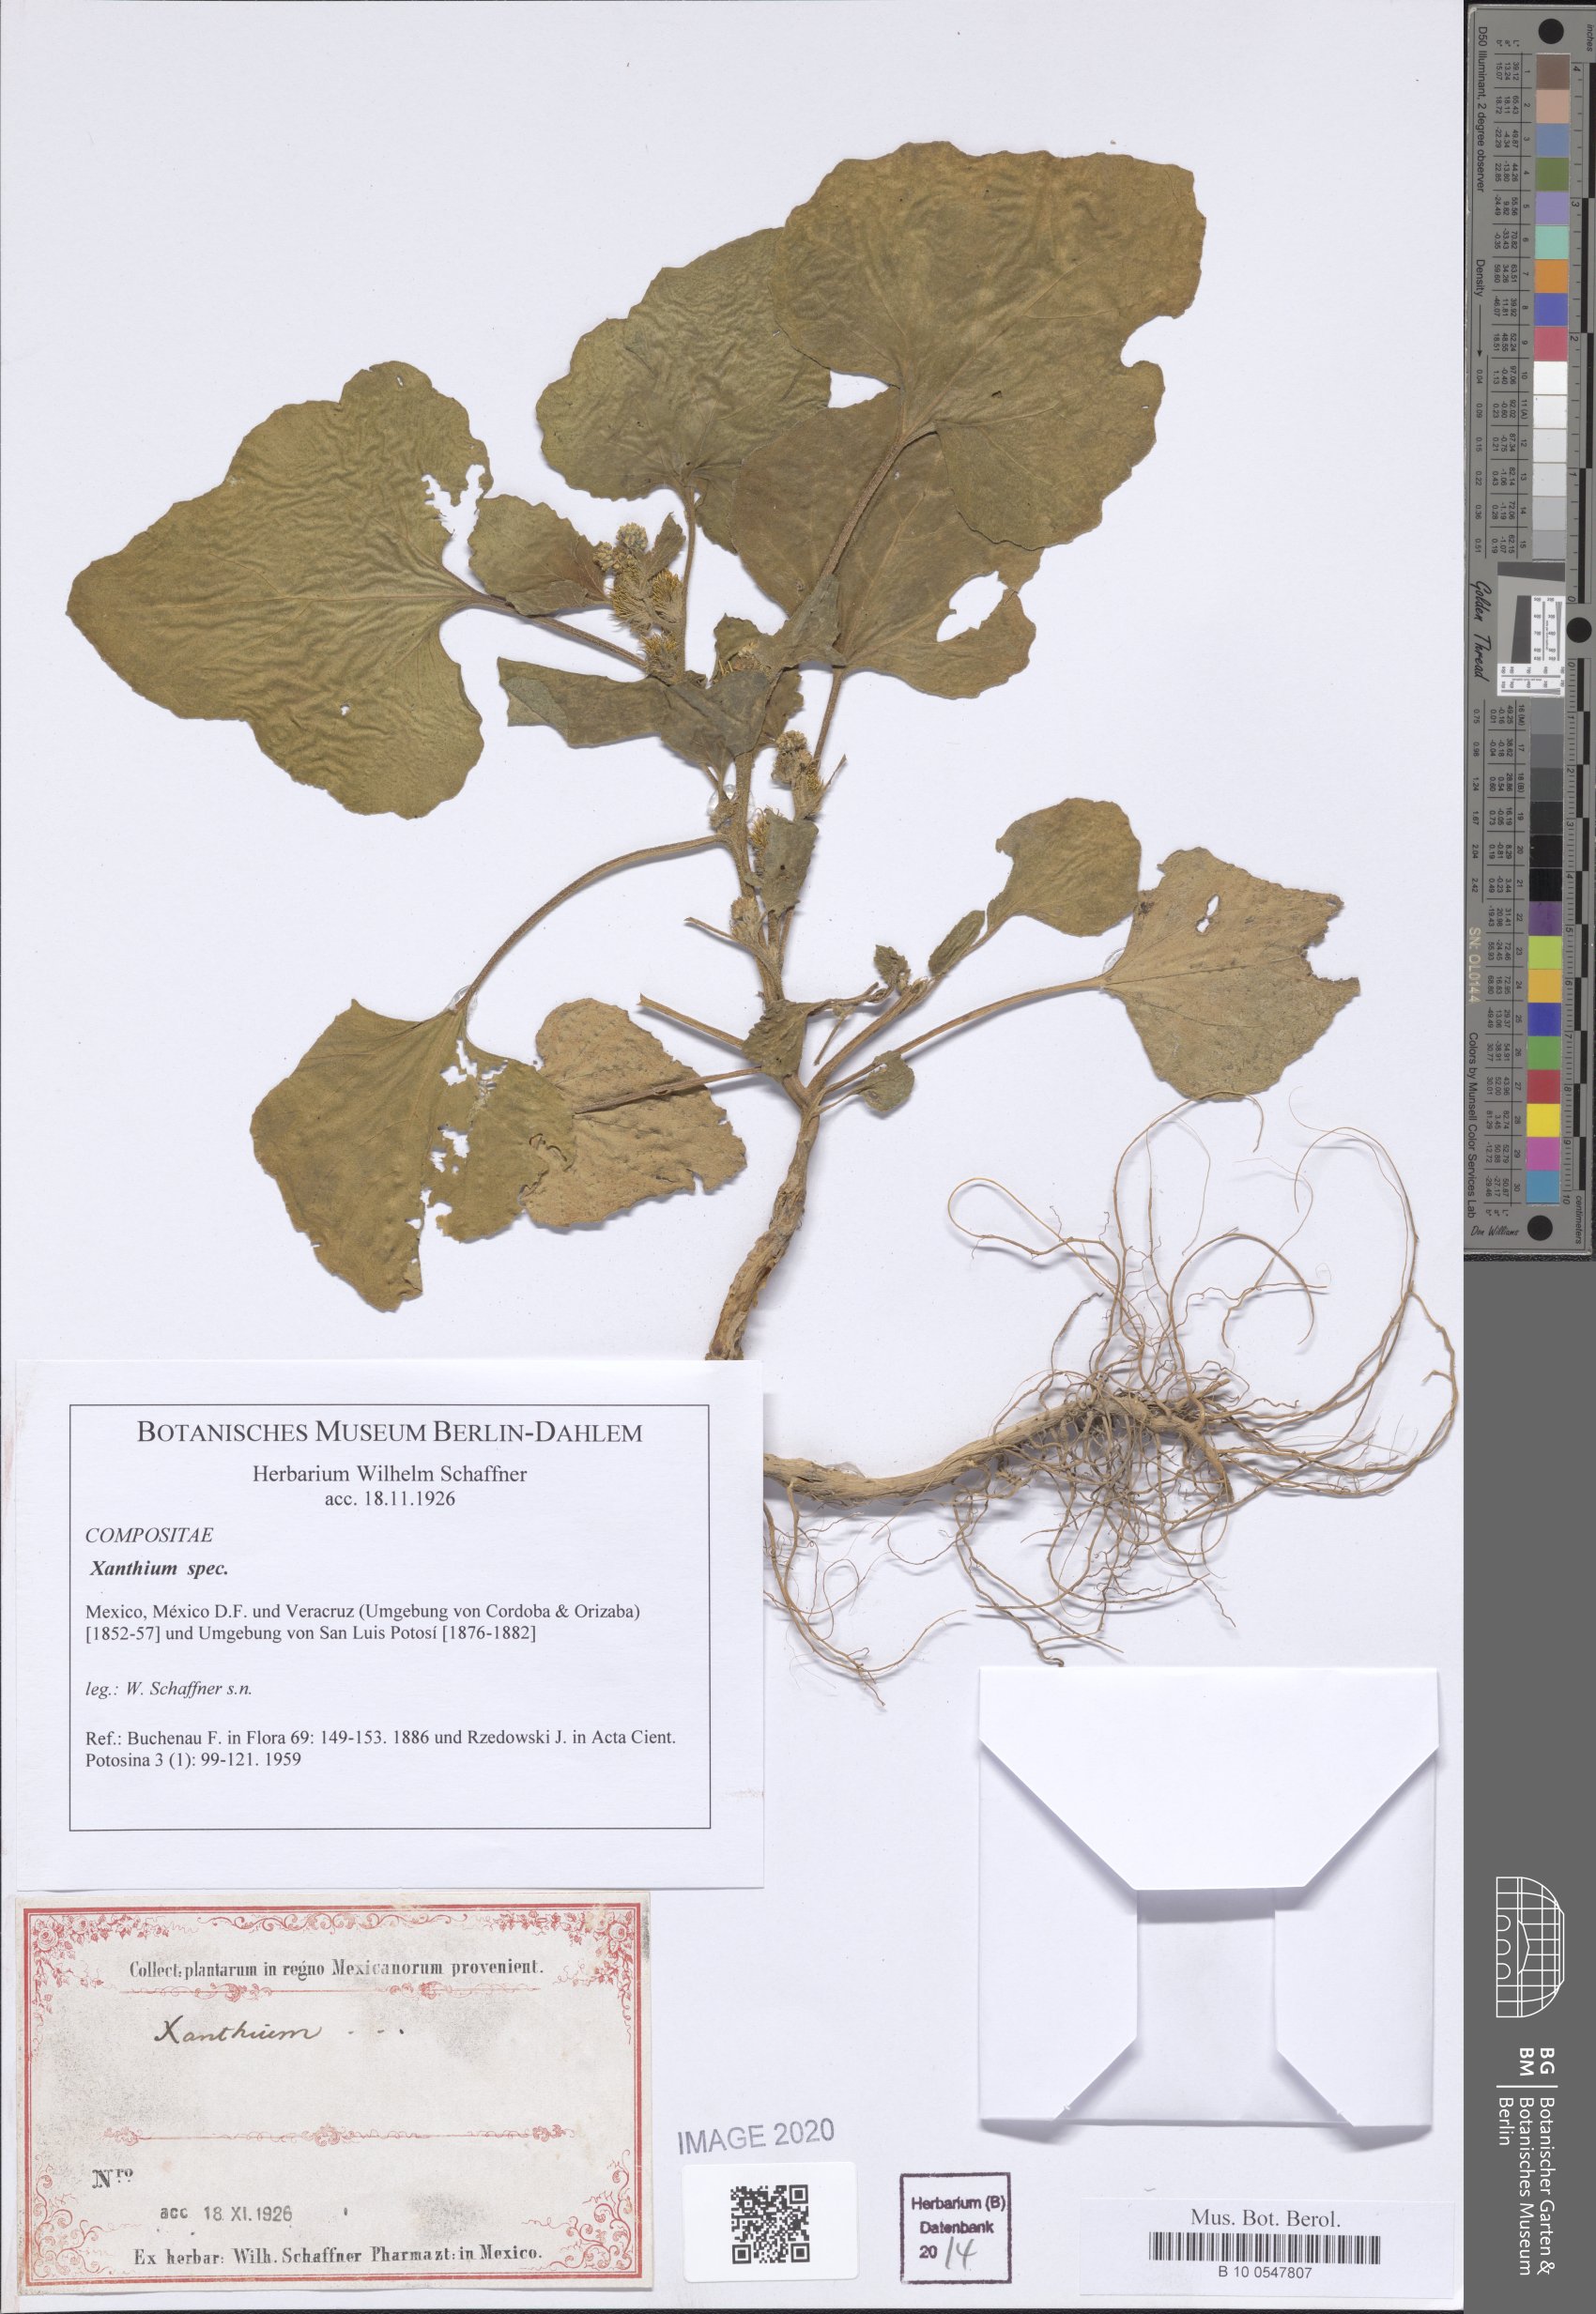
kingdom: Plantae
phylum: Tracheophyta
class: Magnoliopsida
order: Asterales
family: Asteraceae
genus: Xanthium
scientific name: Xanthium
